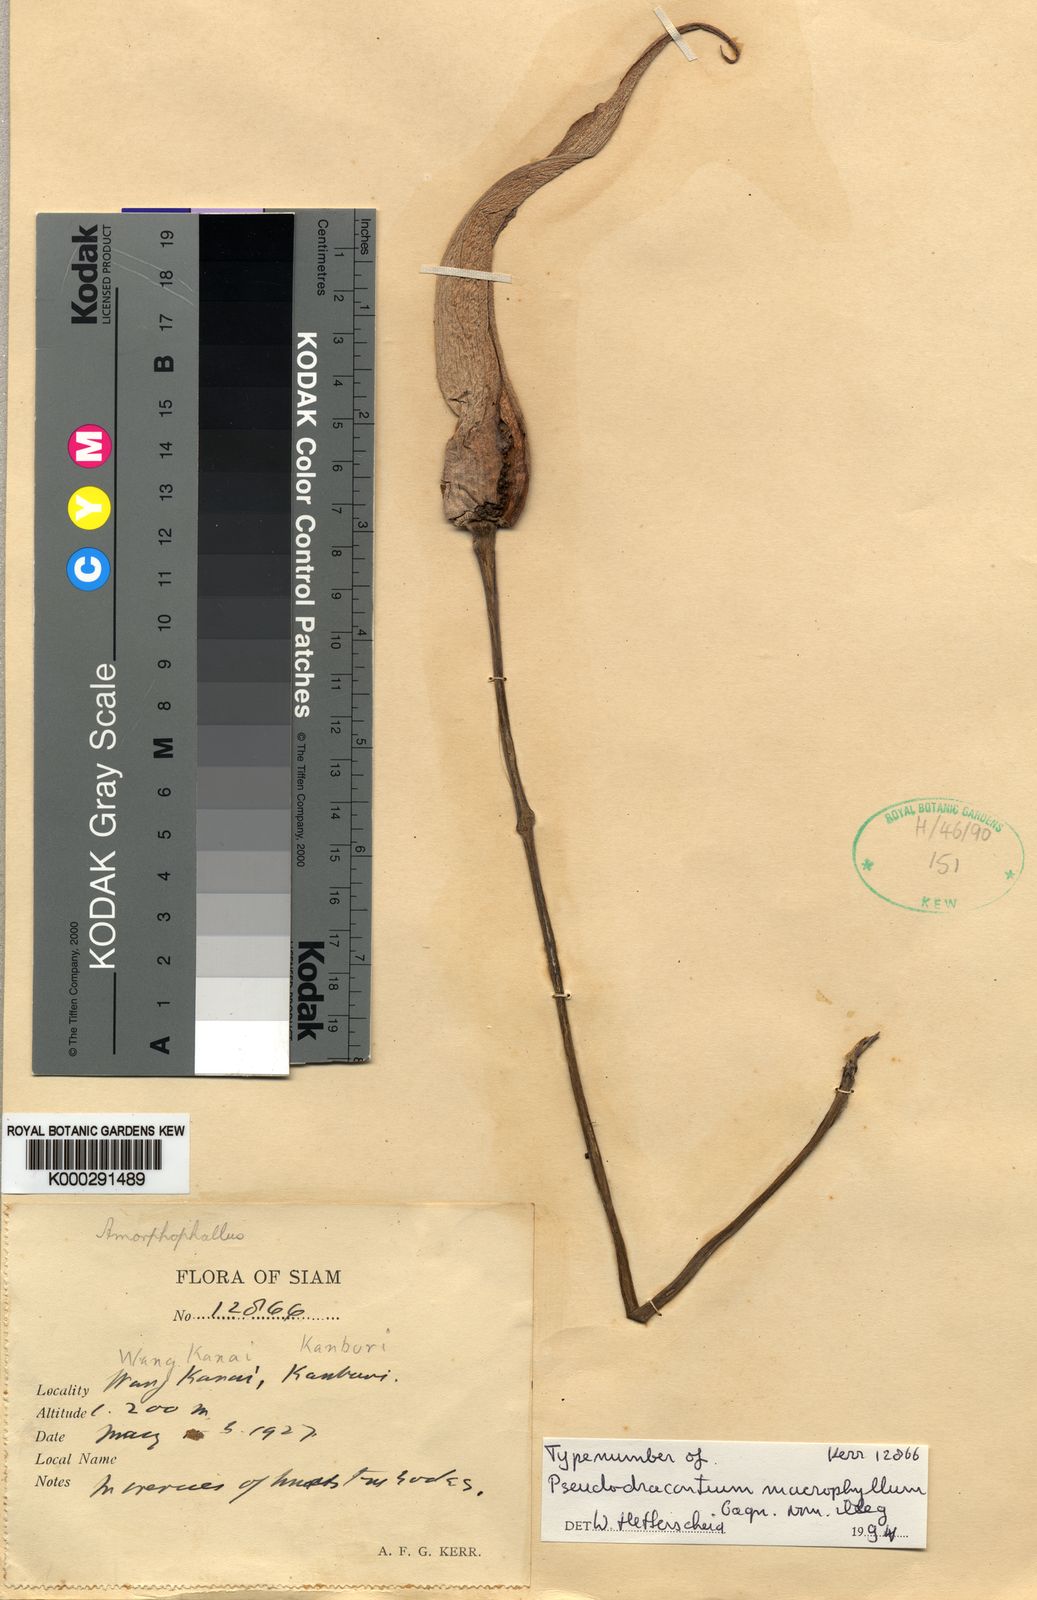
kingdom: Plantae
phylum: Tracheophyta
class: Liliopsida
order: Alismatales
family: Araceae
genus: Amorphophallus
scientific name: Amorphophallus macrophyllus
